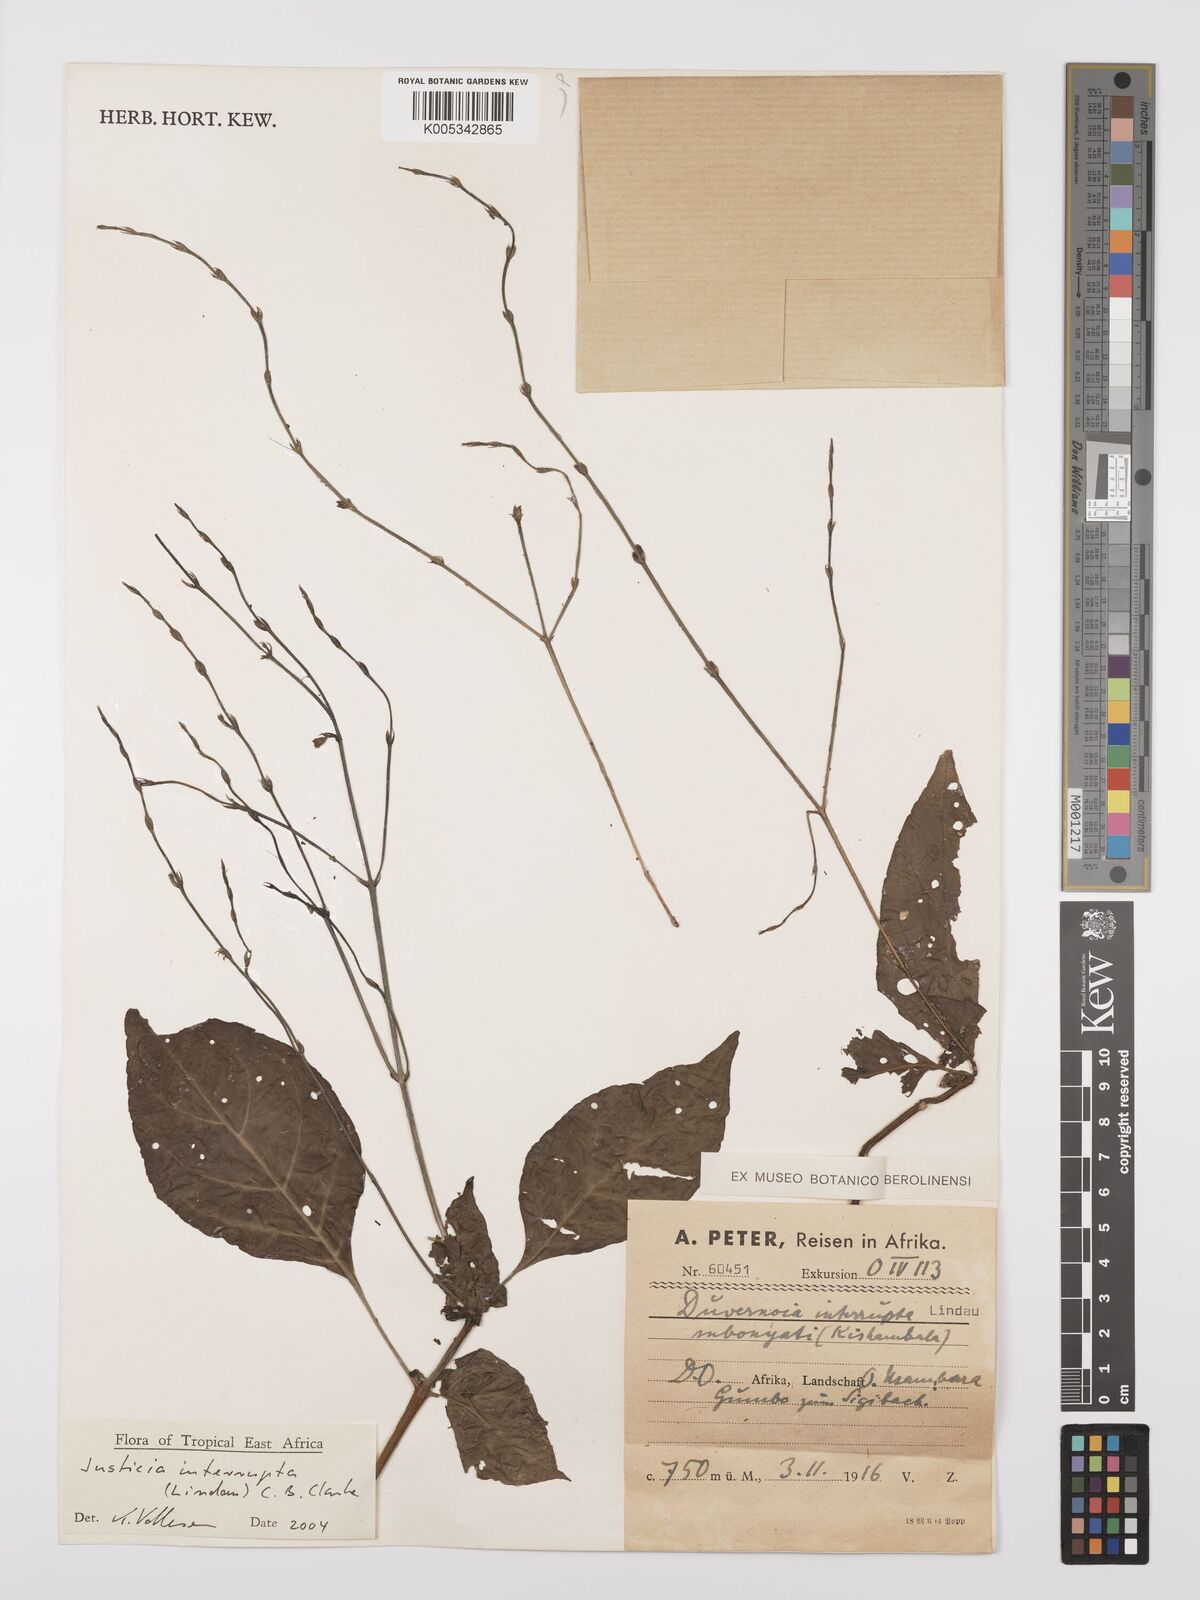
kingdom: Plantae
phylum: Tracheophyta
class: Magnoliopsida
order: Lamiales
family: Acanthaceae
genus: Justicia
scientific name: Justicia plectranthoides
